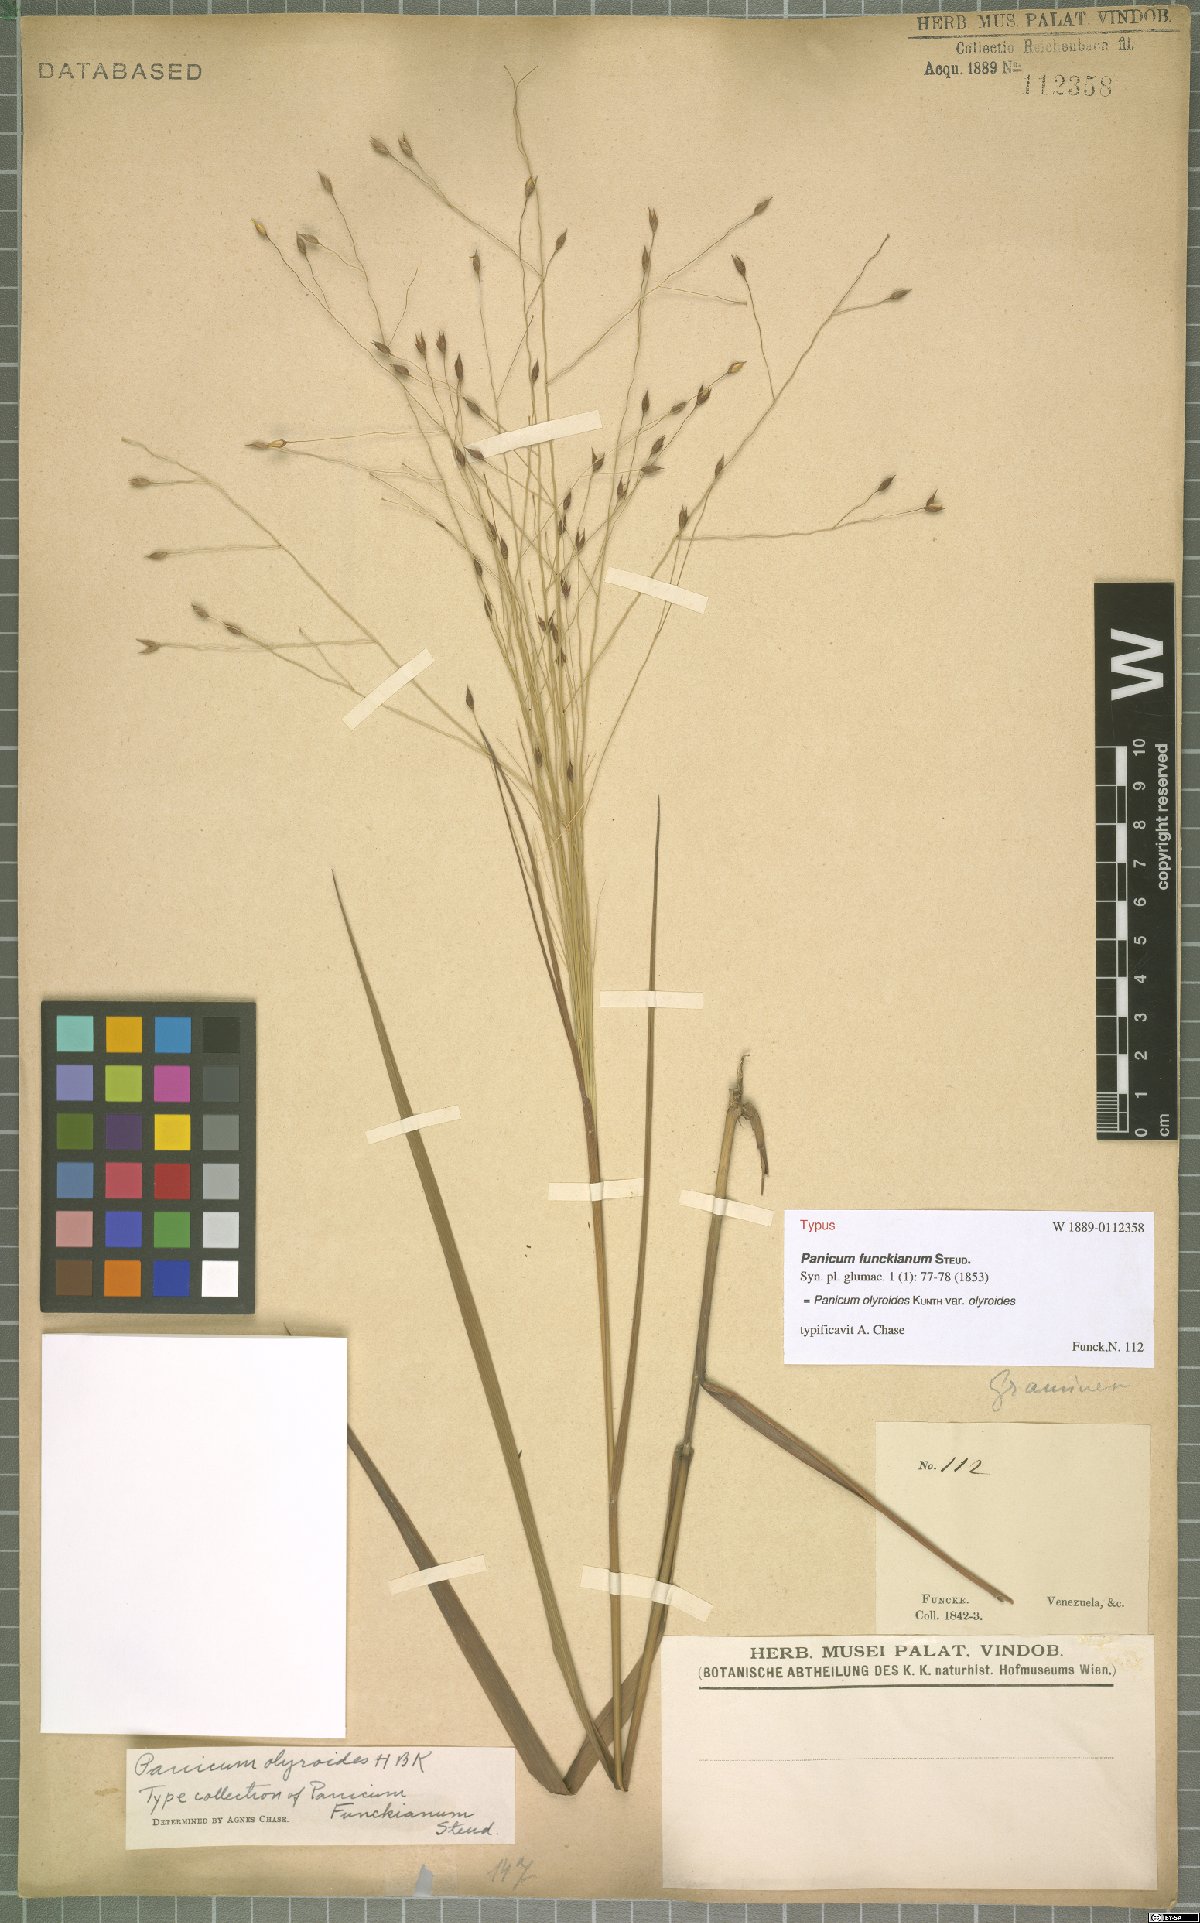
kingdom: Plantae
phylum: Tracheophyta
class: Liliopsida
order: Poales
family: Poaceae
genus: Panicum
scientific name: Panicum olyroides
